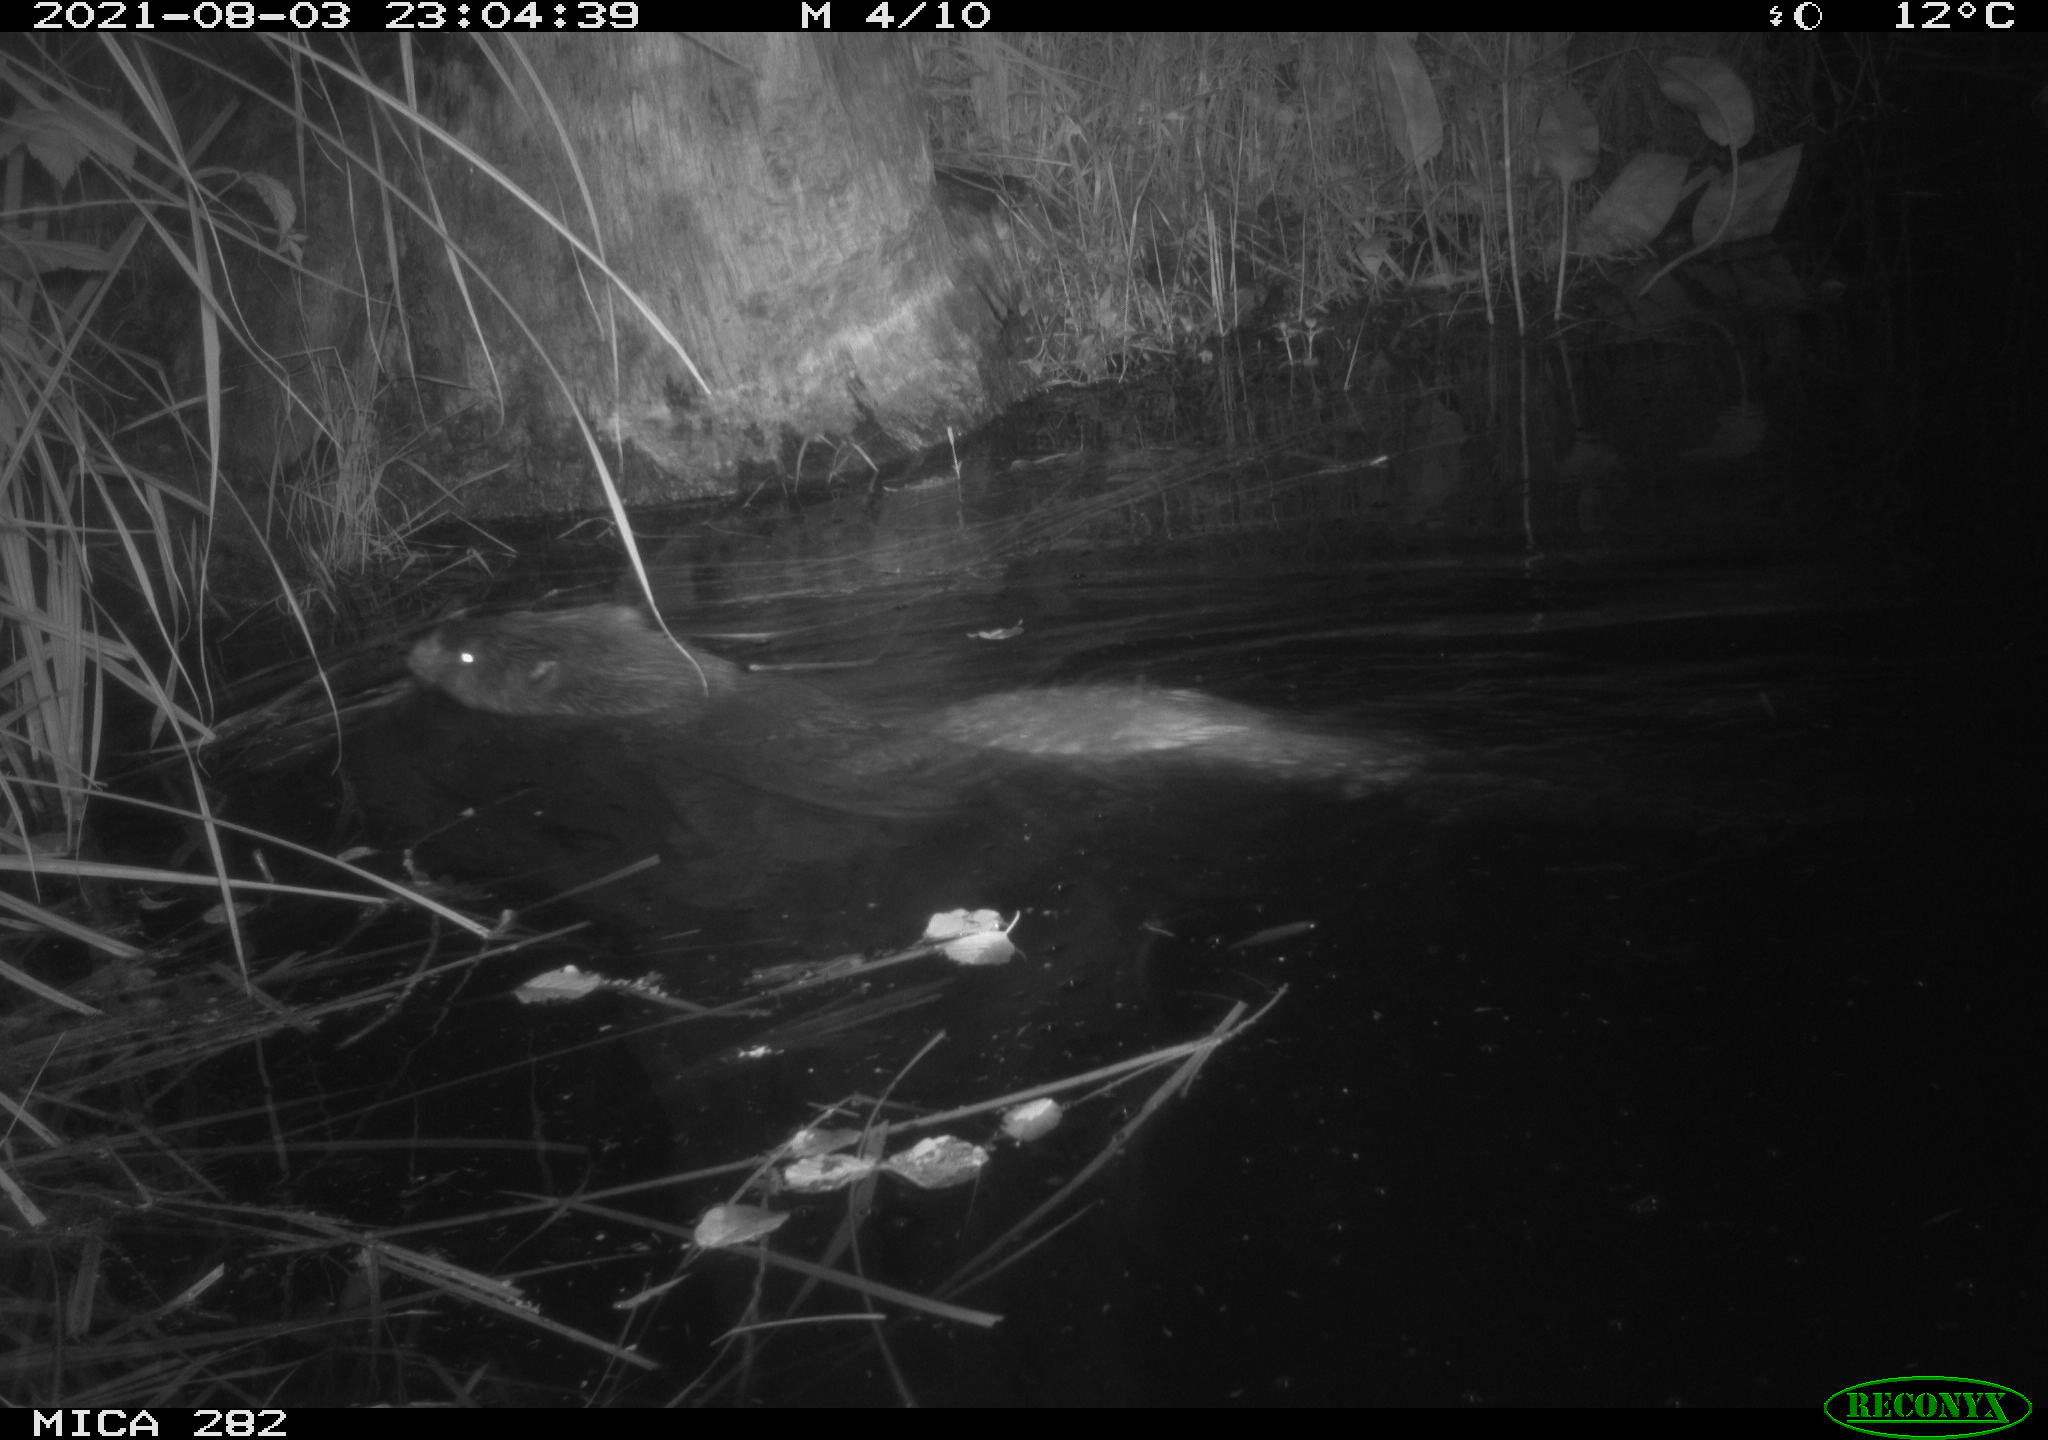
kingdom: Animalia
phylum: Chordata
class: Mammalia
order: Rodentia
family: Castoridae
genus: Castor
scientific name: Castor fiber
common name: Eurasian beaver
